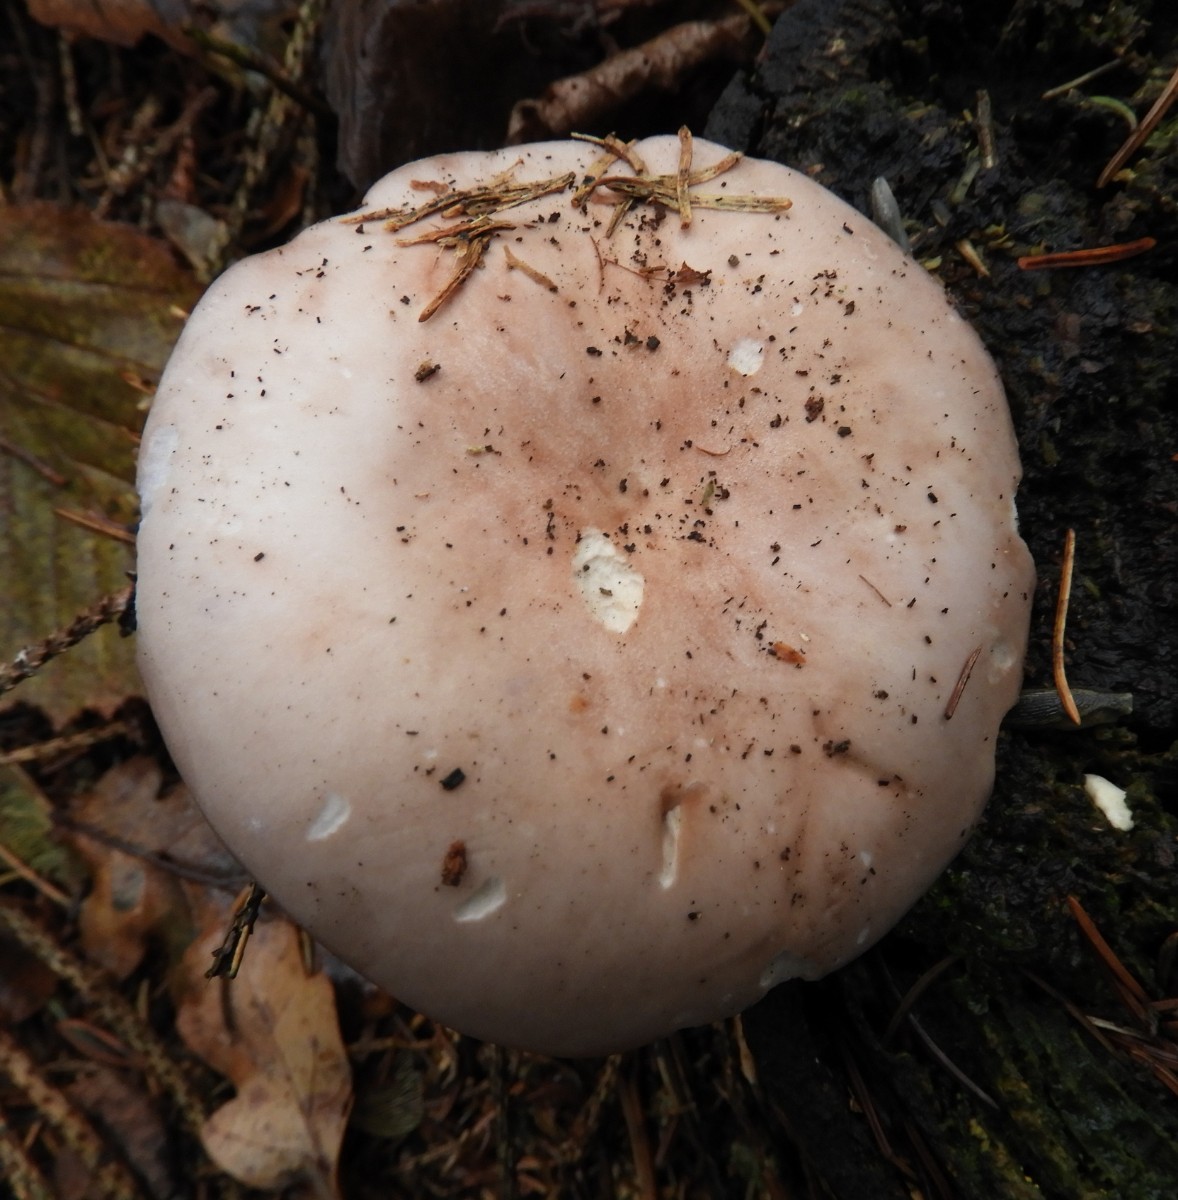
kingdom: Fungi
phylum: Basidiomycota
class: Agaricomycetes
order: Agaricales
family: Tricholomataceae
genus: Lepista
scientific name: Lepista nuda
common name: violet hekseringshat
